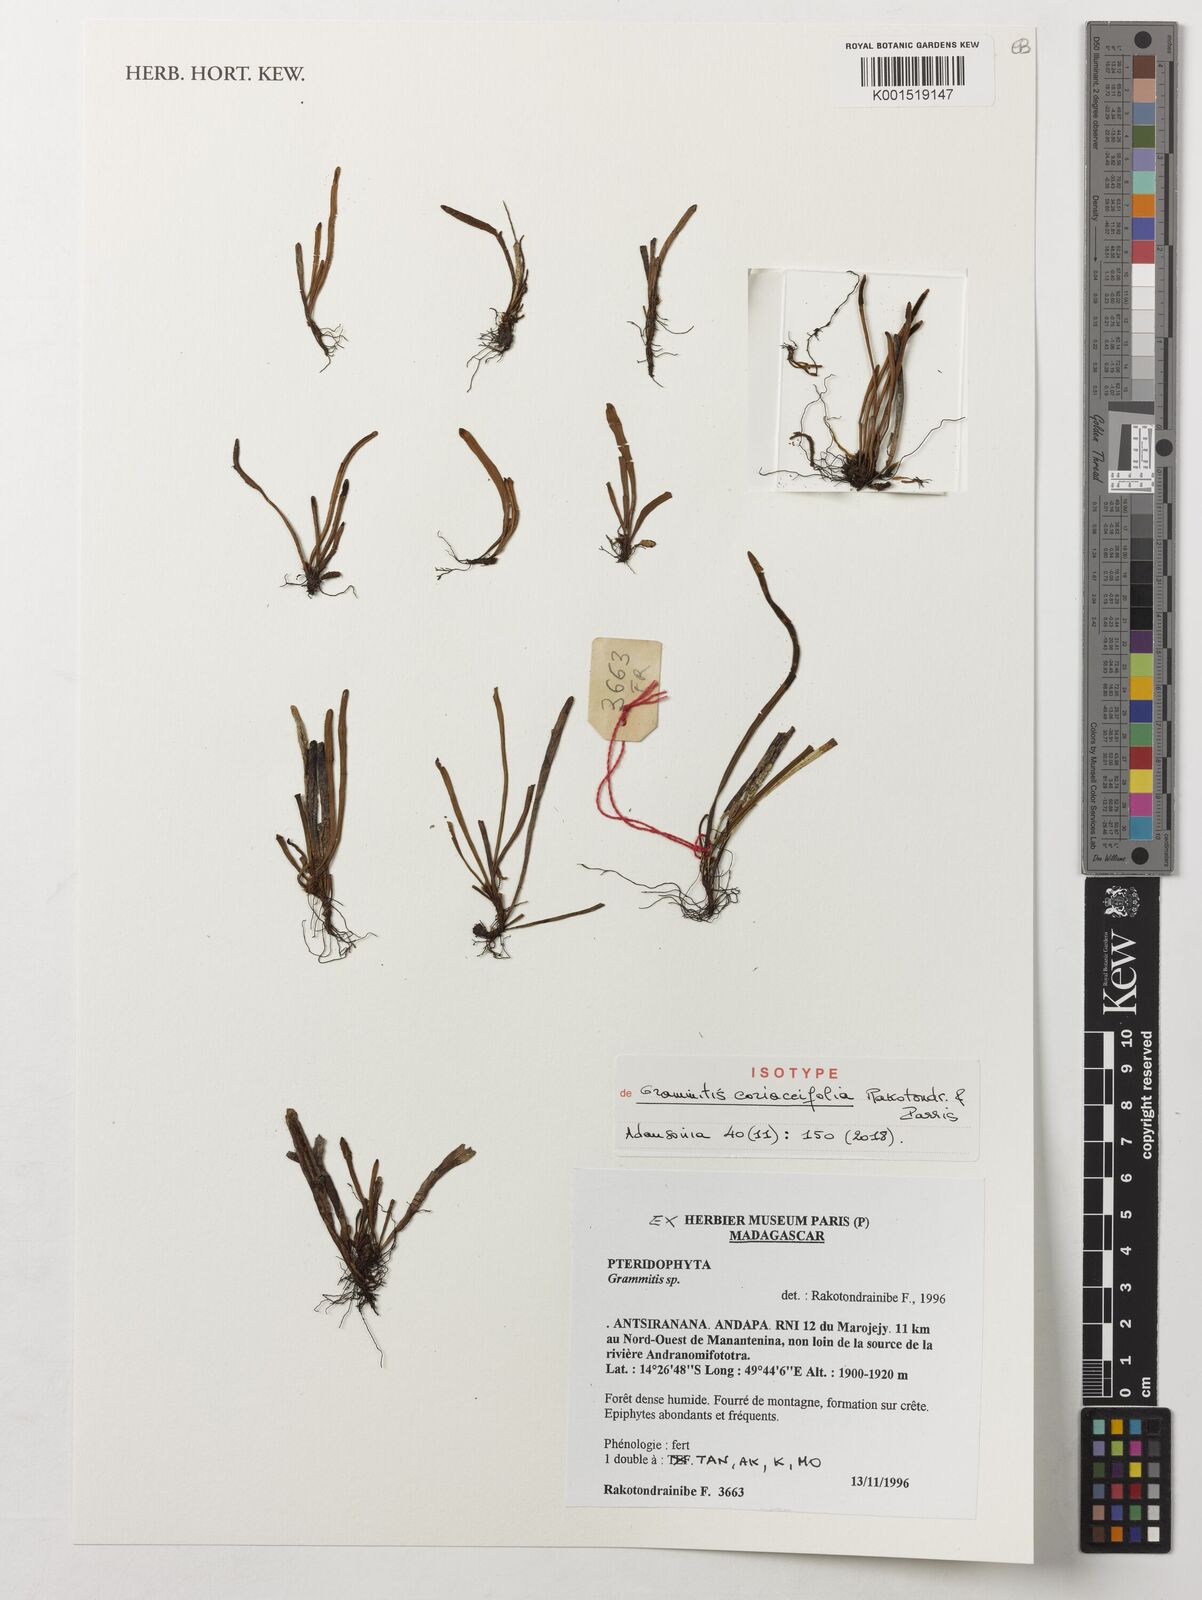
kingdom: Plantae
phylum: Tracheophyta
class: Polypodiopsida
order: Polypodiales
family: Polypodiaceae
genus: Grammitis
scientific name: Grammitis coriaceifolia
